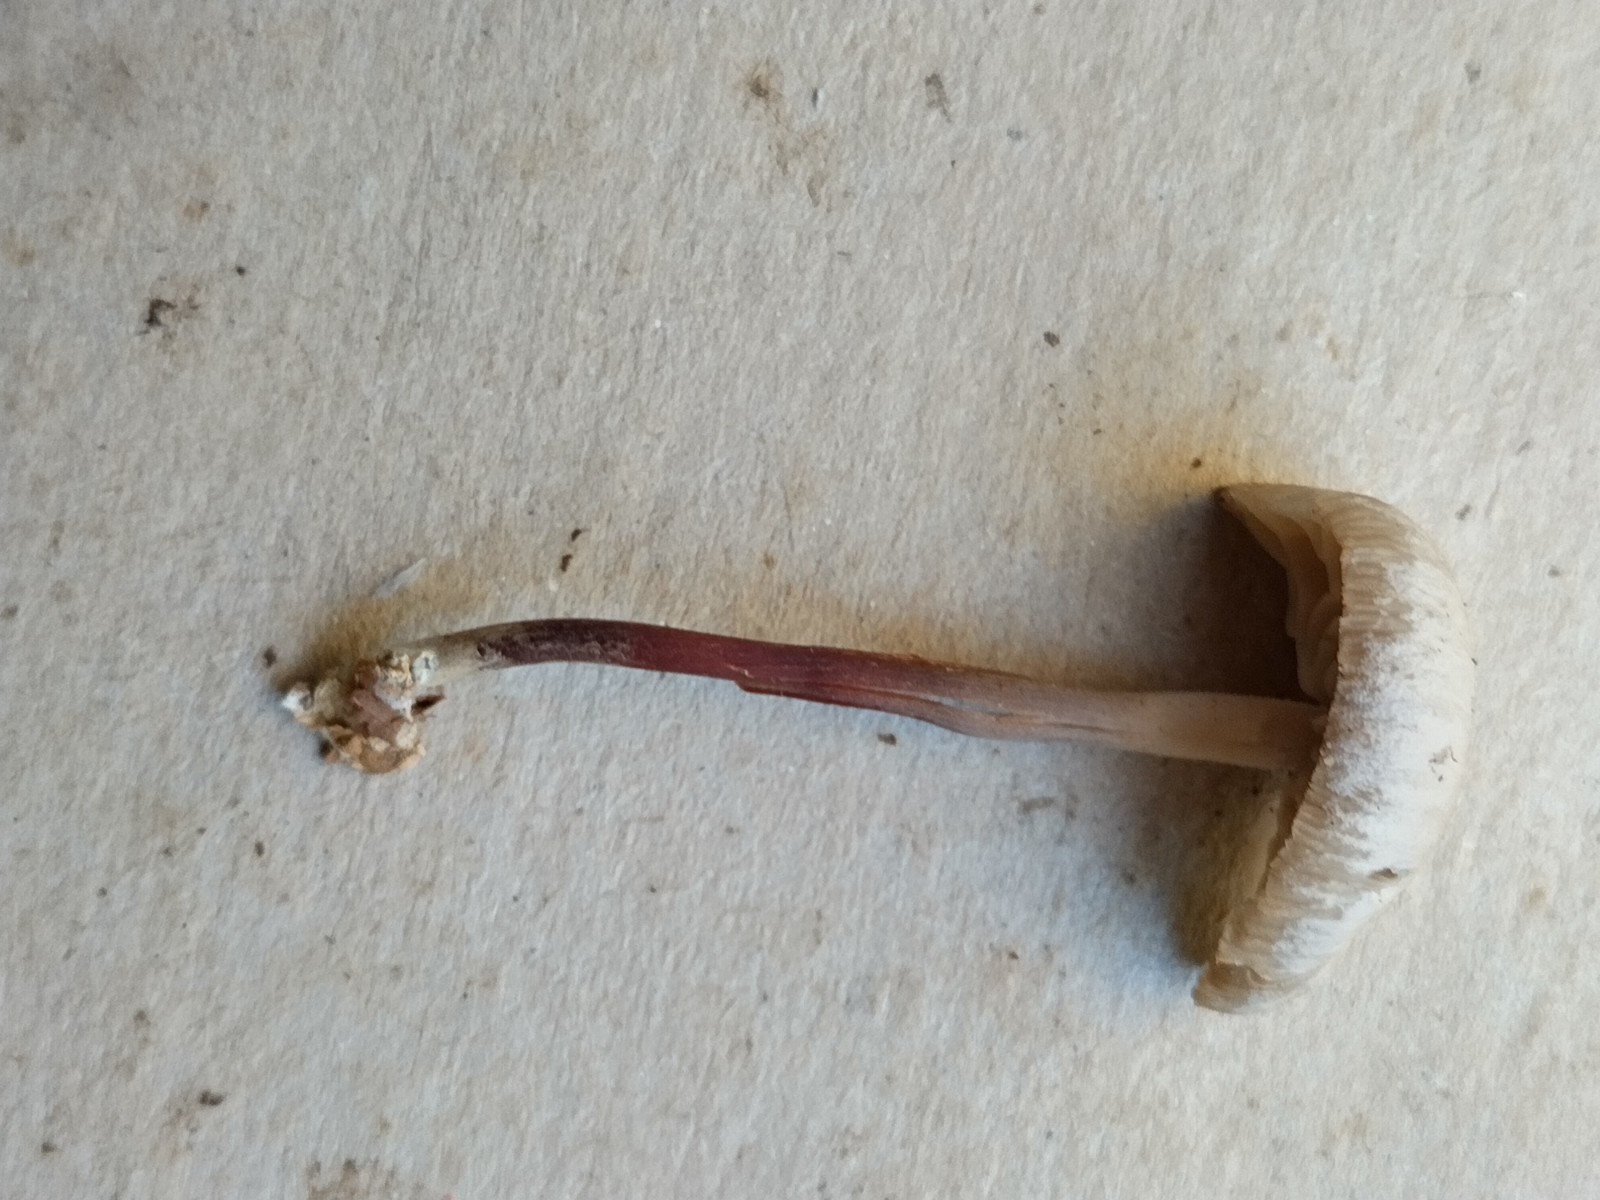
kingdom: Fungi
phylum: Basidiomycota
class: Agaricomycetes
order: Agaricales
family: Marasmiaceae
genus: Marasmius
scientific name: Marasmius wynneae
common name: hvælvet bruskhat
